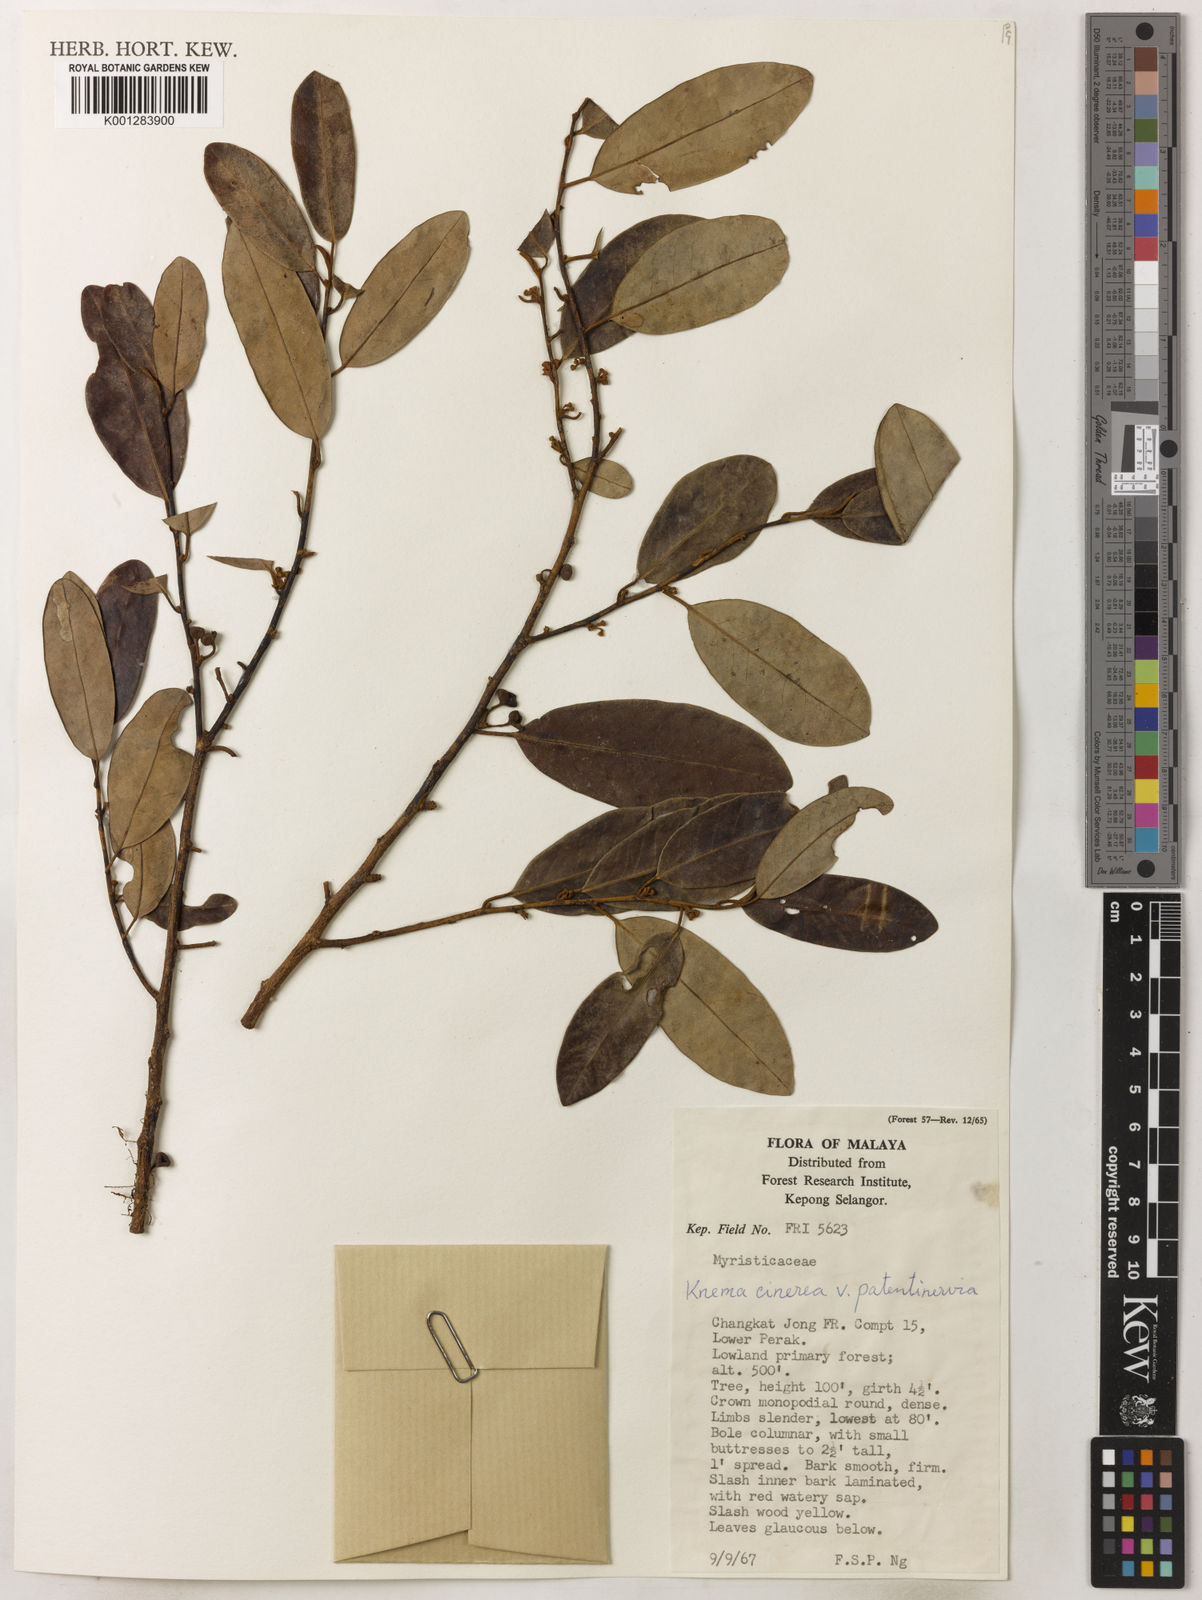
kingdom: Plantae
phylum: Tracheophyta
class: Magnoliopsida
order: Magnoliales
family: Myristicaceae
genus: Knema
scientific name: Knema
